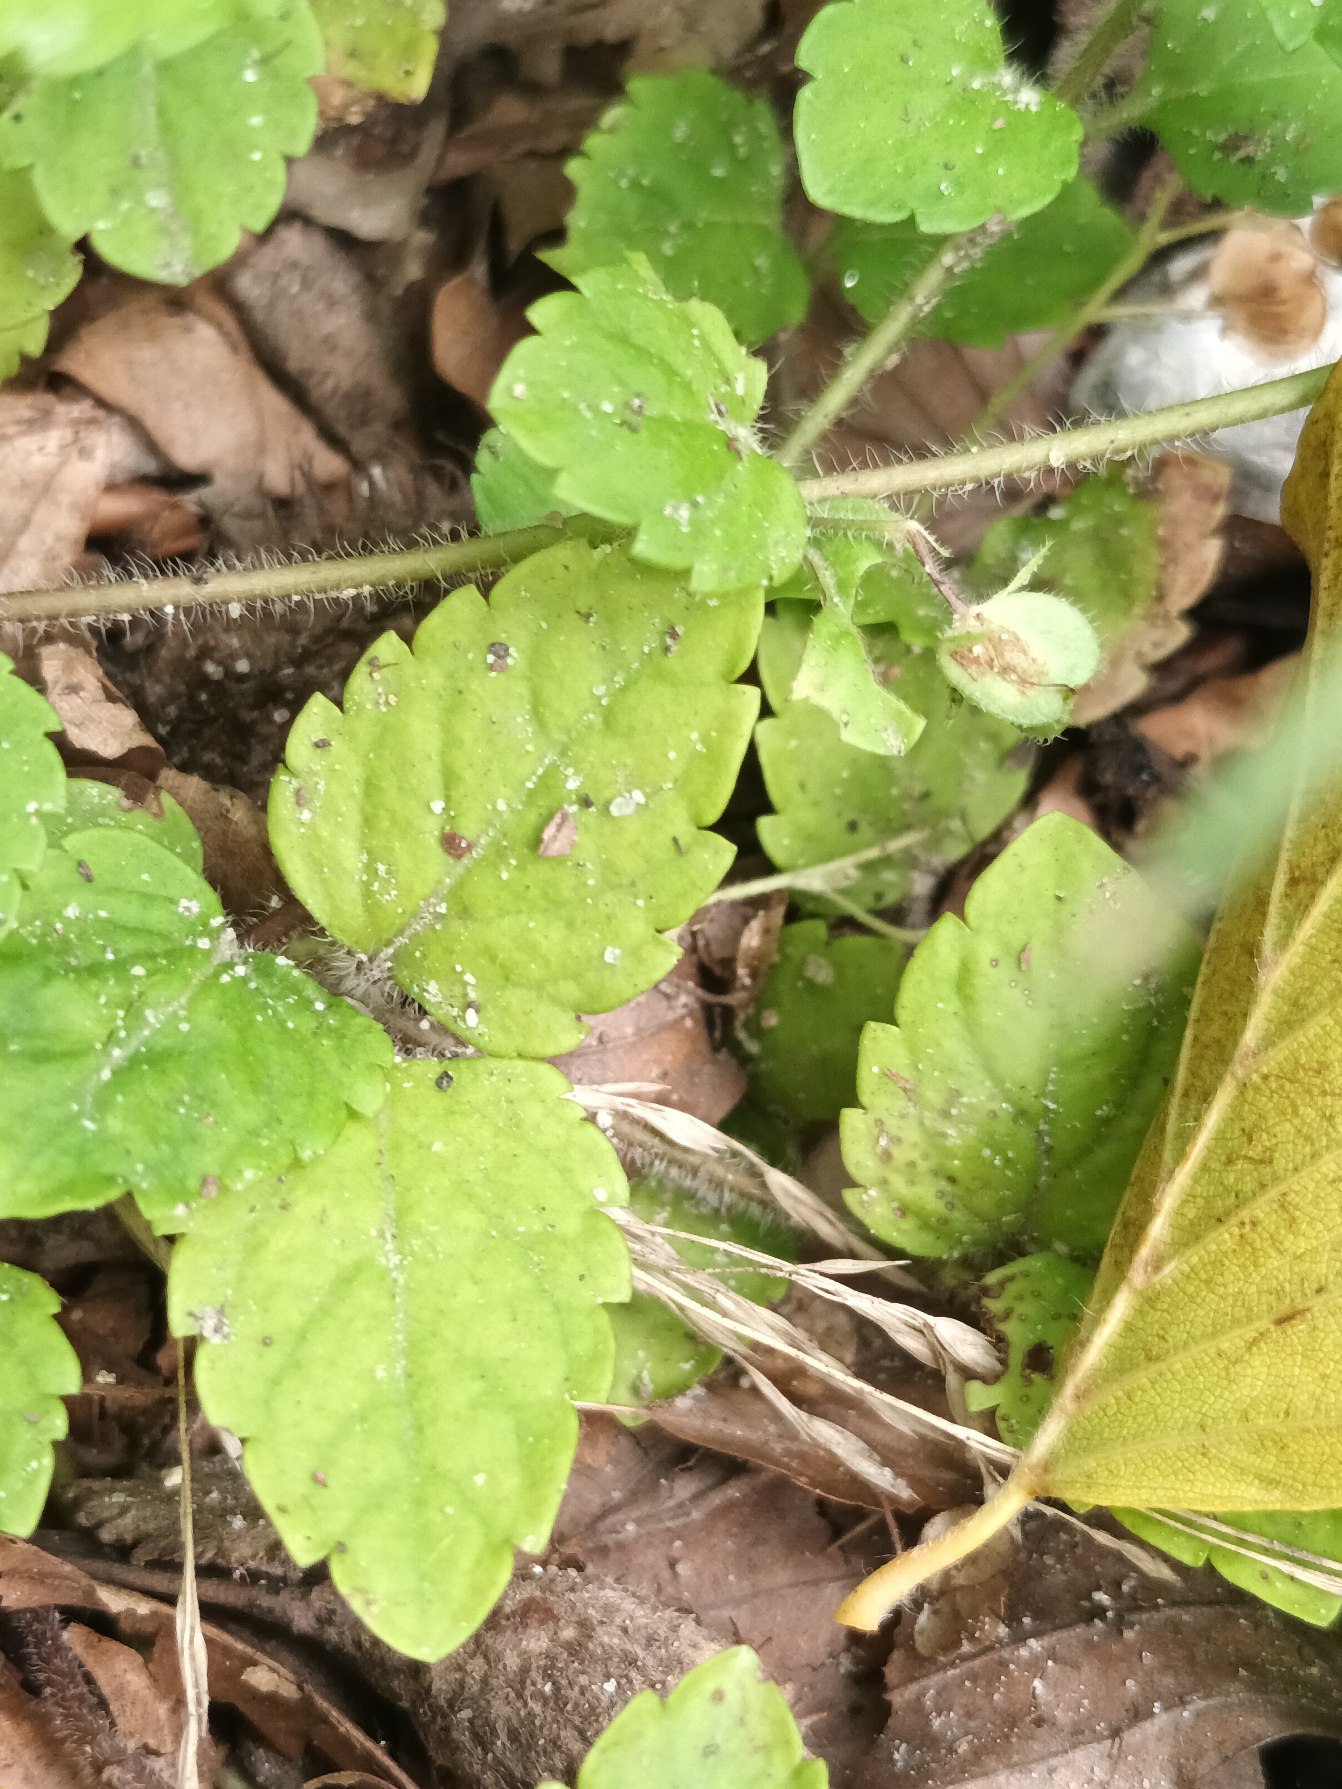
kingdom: Plantae
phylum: Tracheophyta
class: Magnoliopsida
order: Lamiales
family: Plantaginaceae
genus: Veronica
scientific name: Veronica montana
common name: Bjerg-ærenpris
